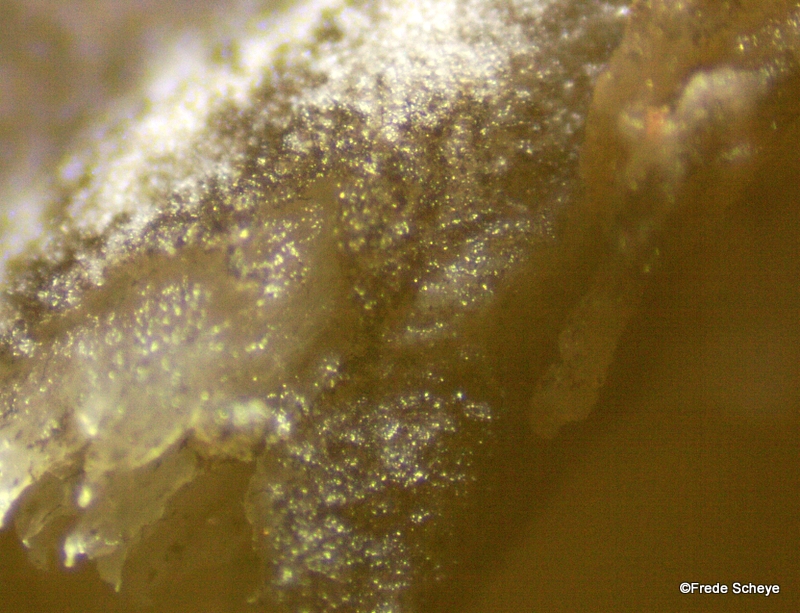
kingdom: Fungi
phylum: Ascomycota
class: Sordariomycetes
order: Sordariales
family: Helminthosphaeriaceae
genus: Helminthosphaeria
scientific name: Helminthosphaeria clavariarum
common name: trold-svampesnyltekerne
